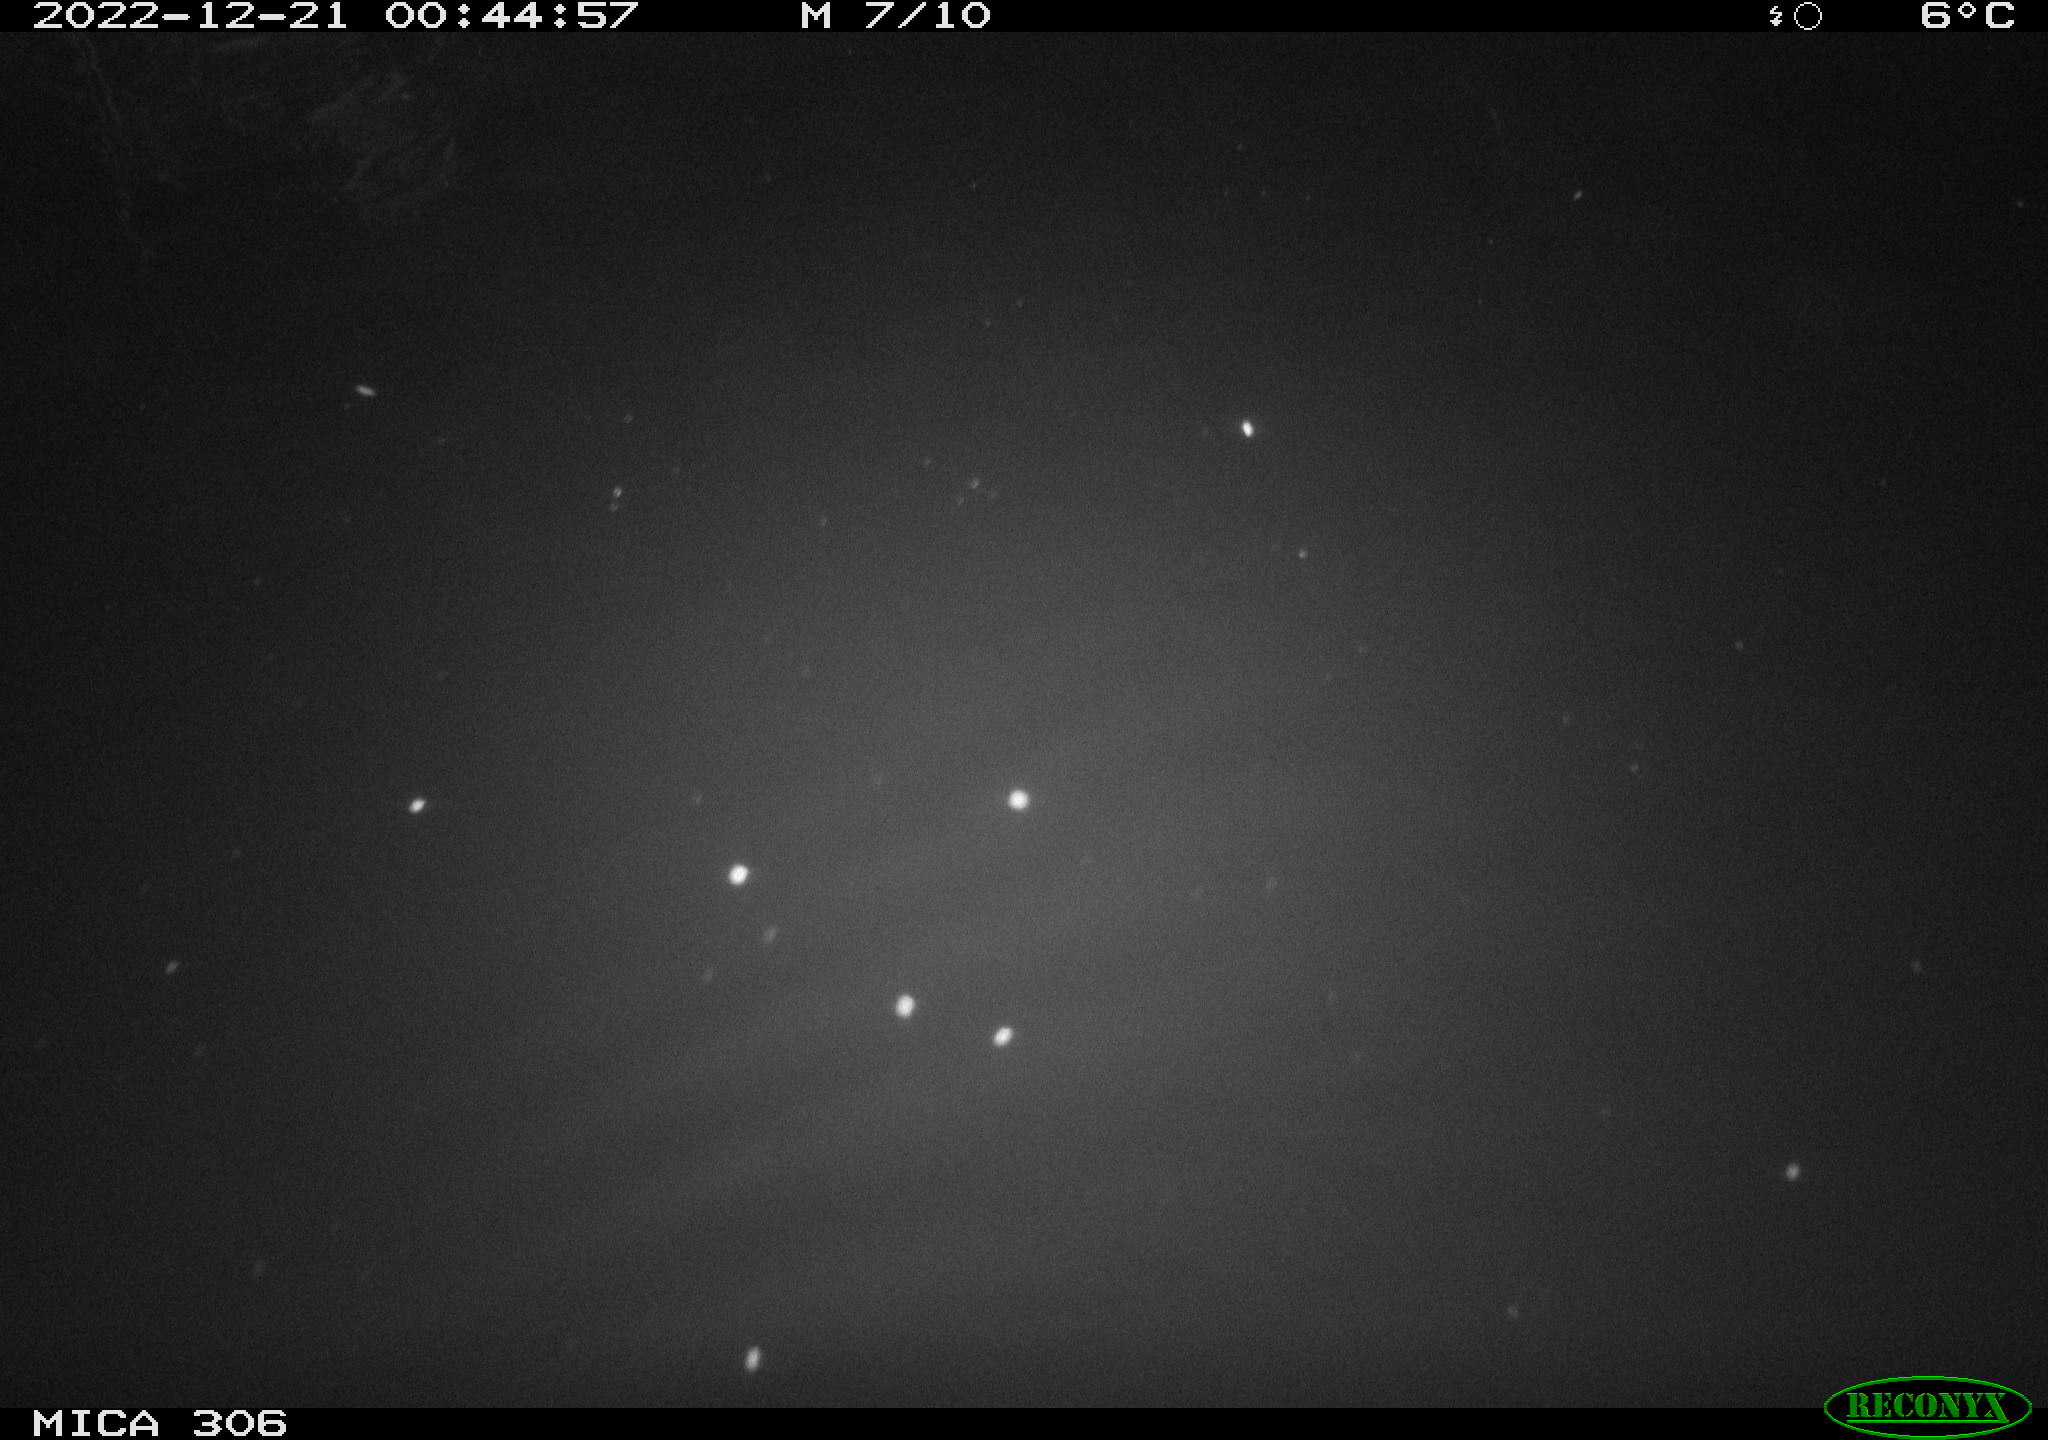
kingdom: Animalia
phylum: Chordata
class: Mammalia
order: Rodentia
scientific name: Rodentia
